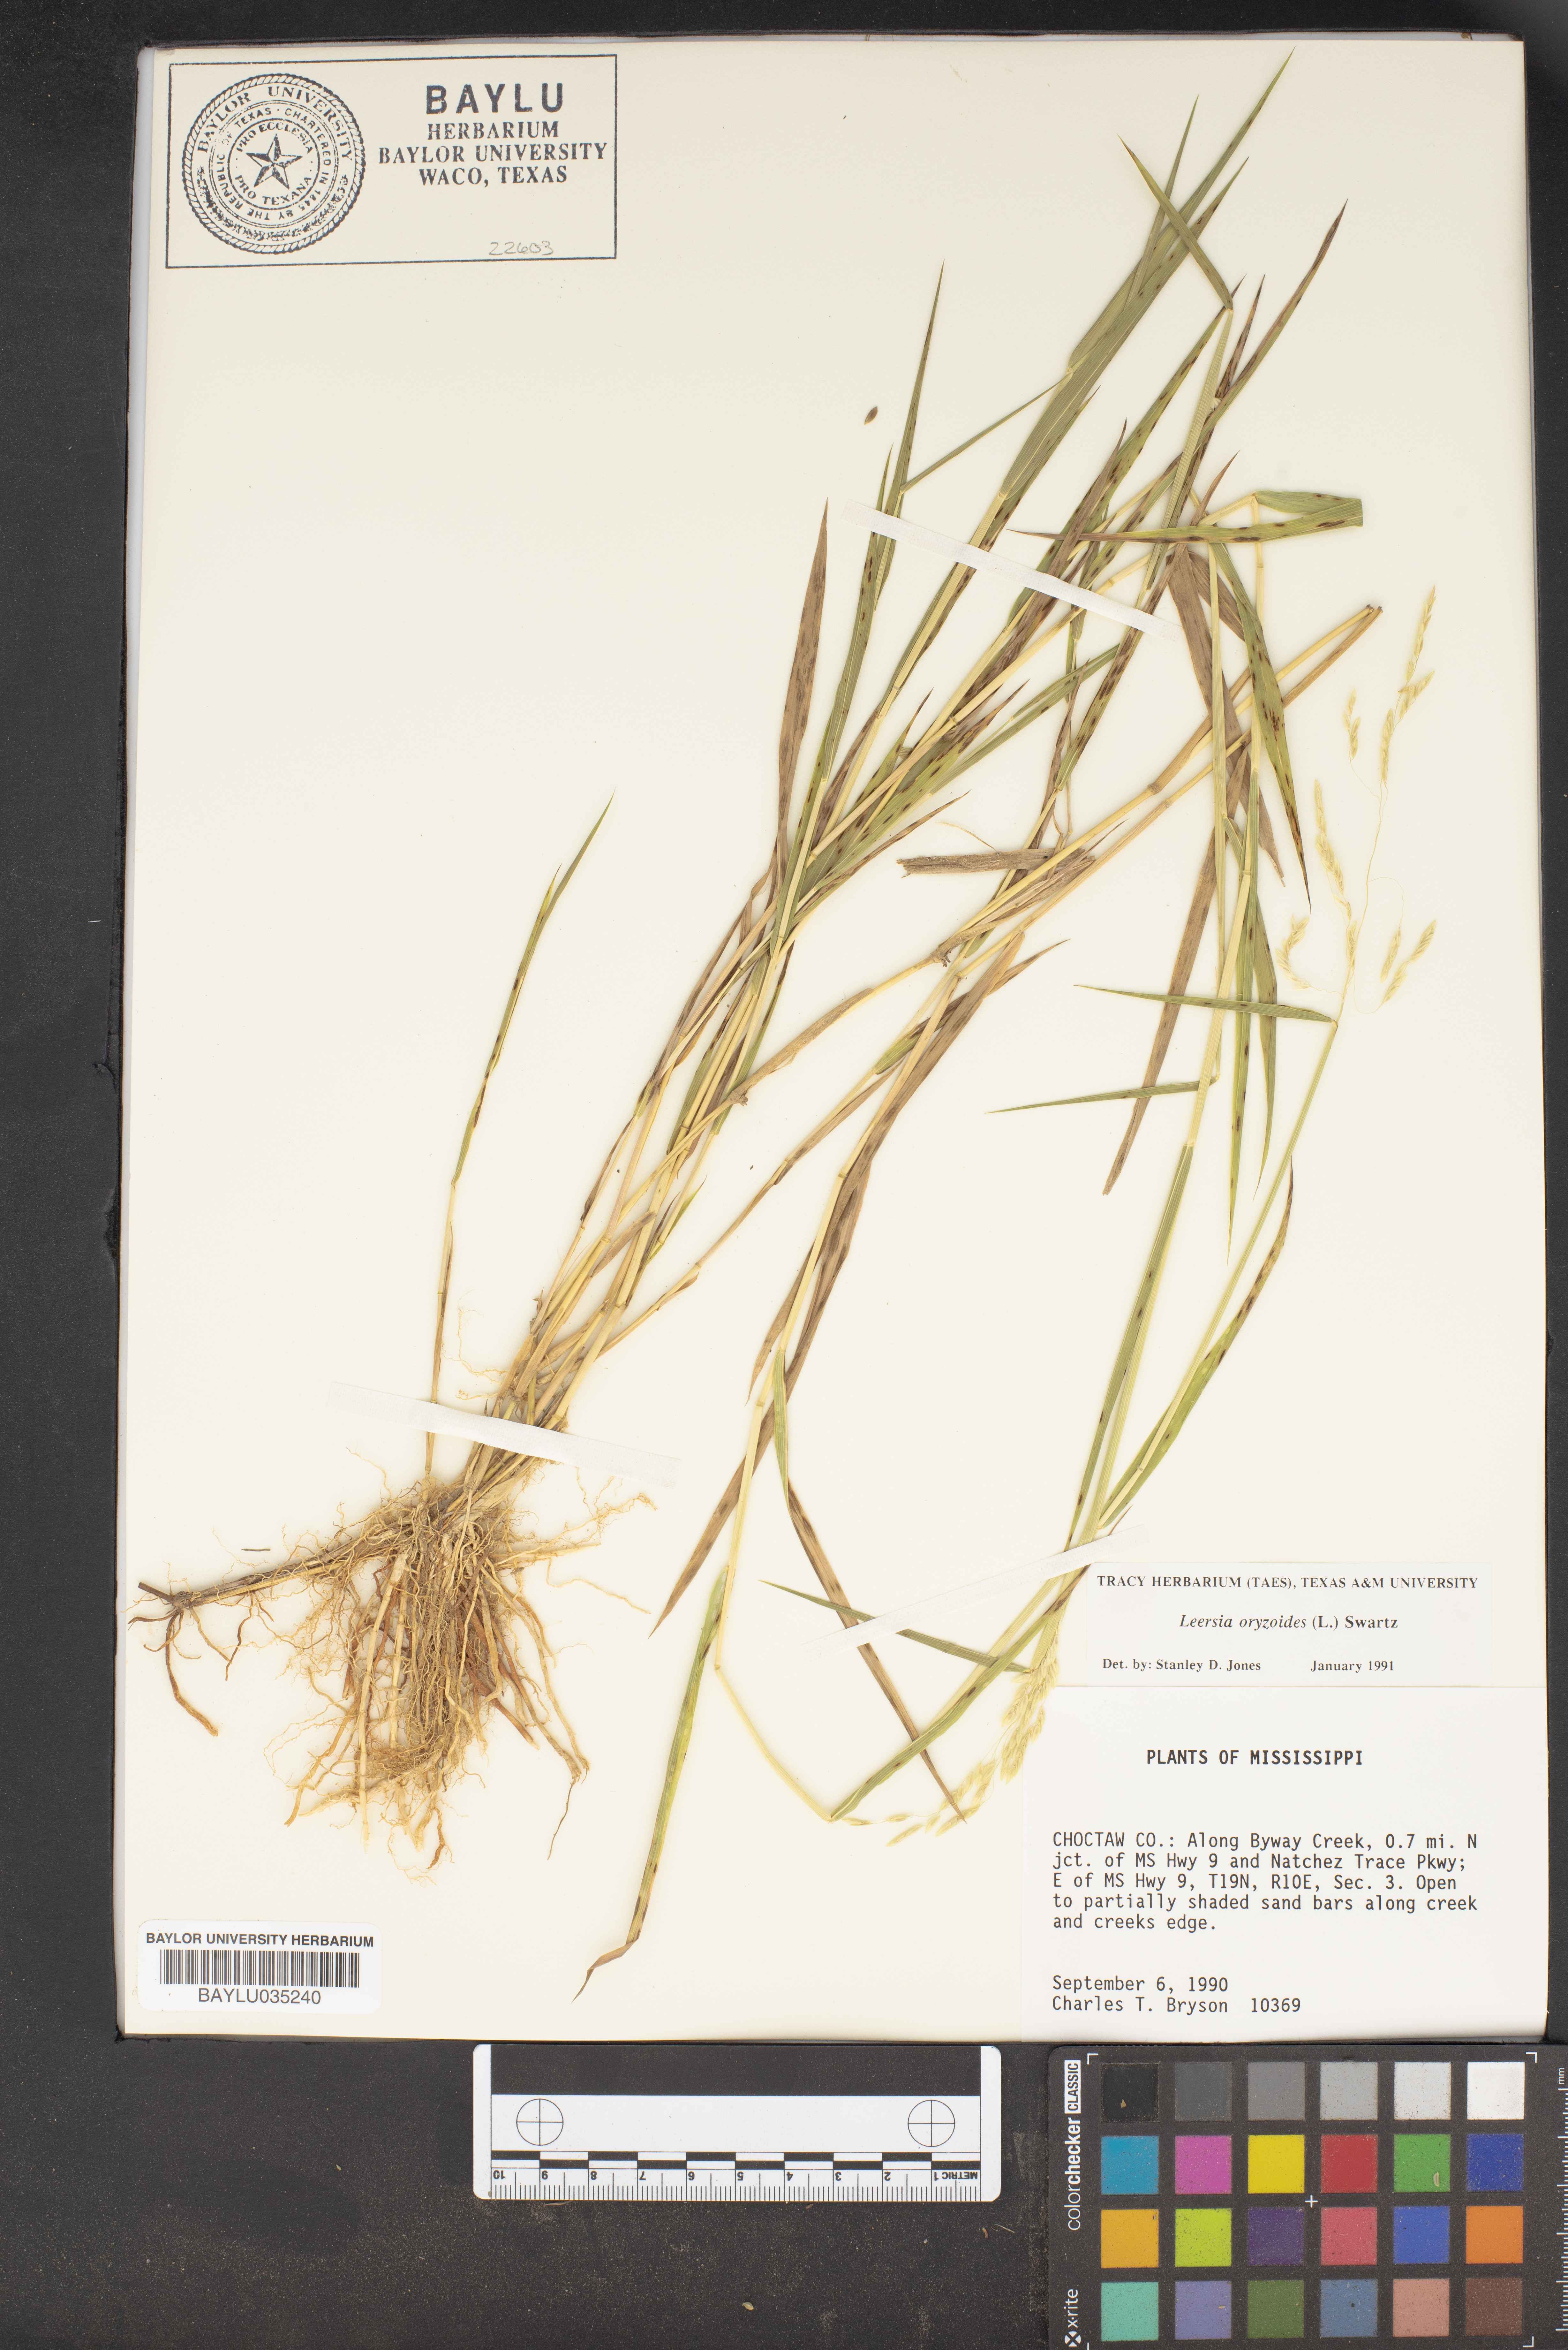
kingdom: Plantae
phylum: Tracheophyta
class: Liliopsida
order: Poales
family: Poaceae
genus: Leersia
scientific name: Leersia oryzoides
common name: Cut-grass
